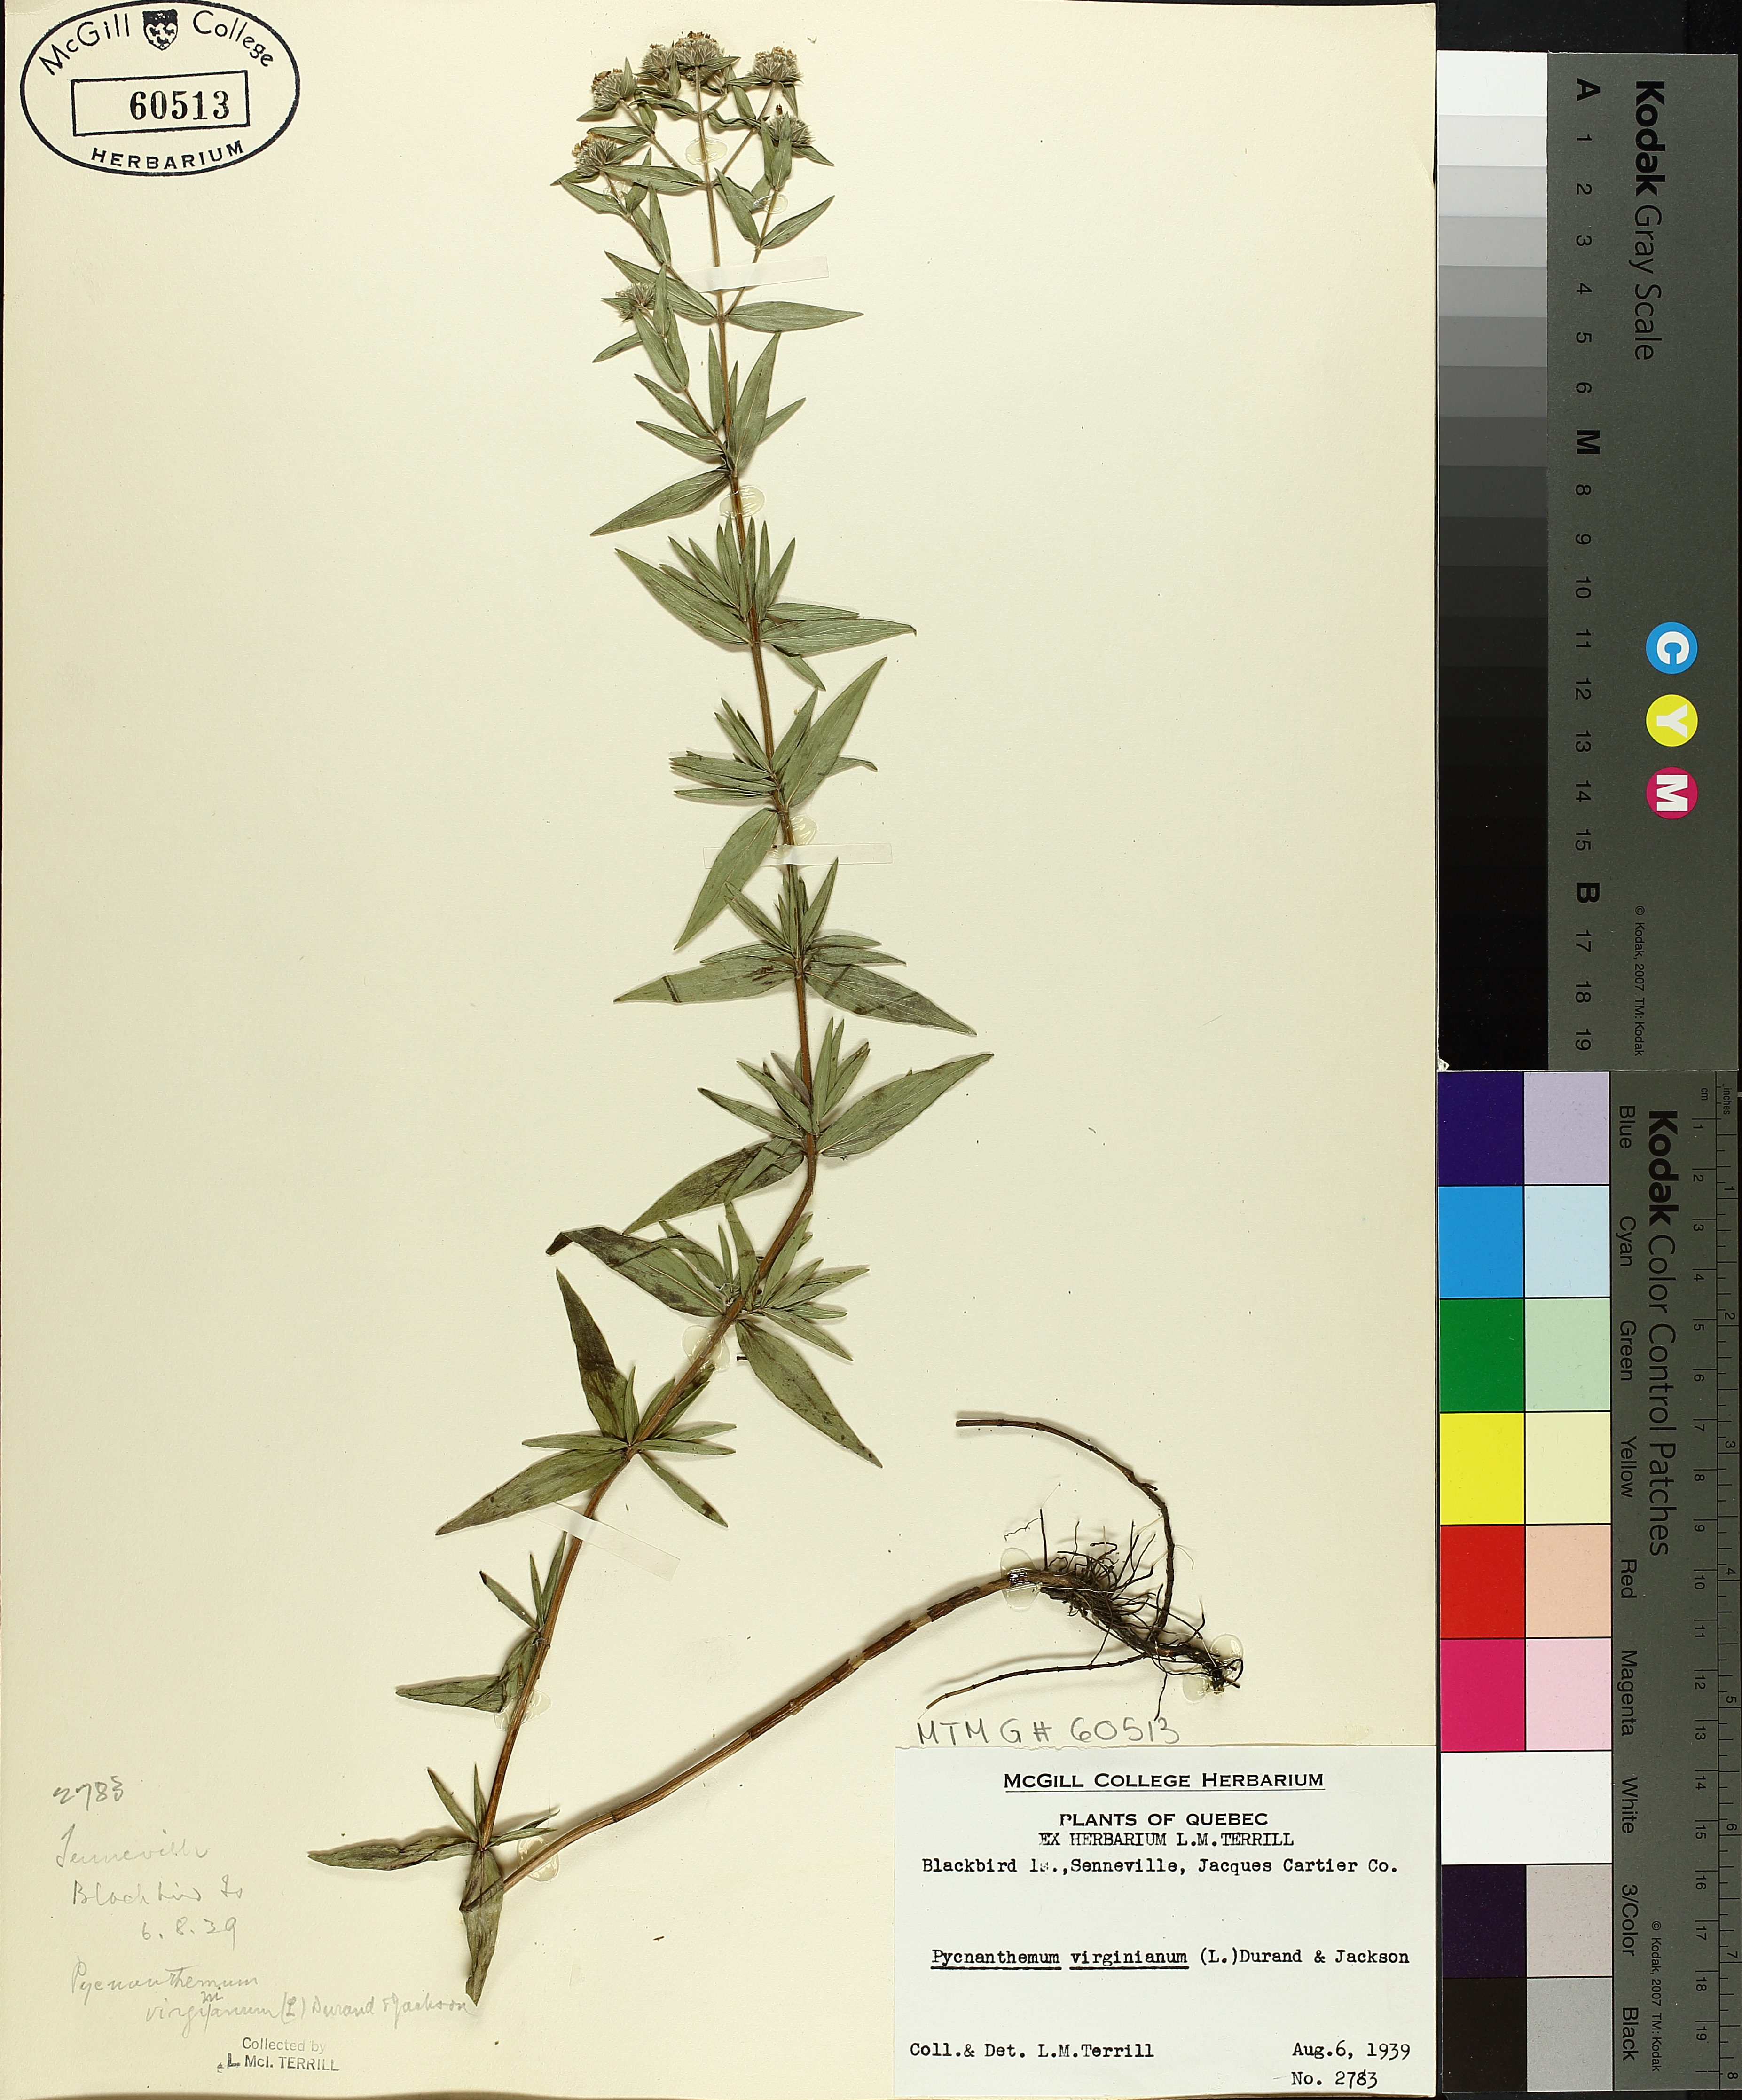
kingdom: Plantae
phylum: Tracheophyta
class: Magnoliopsida
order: Lamiales
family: Lamiaceae
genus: Pycnanthemum
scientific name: Pycnanthemum virginianum
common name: Virginia mountain-mint
